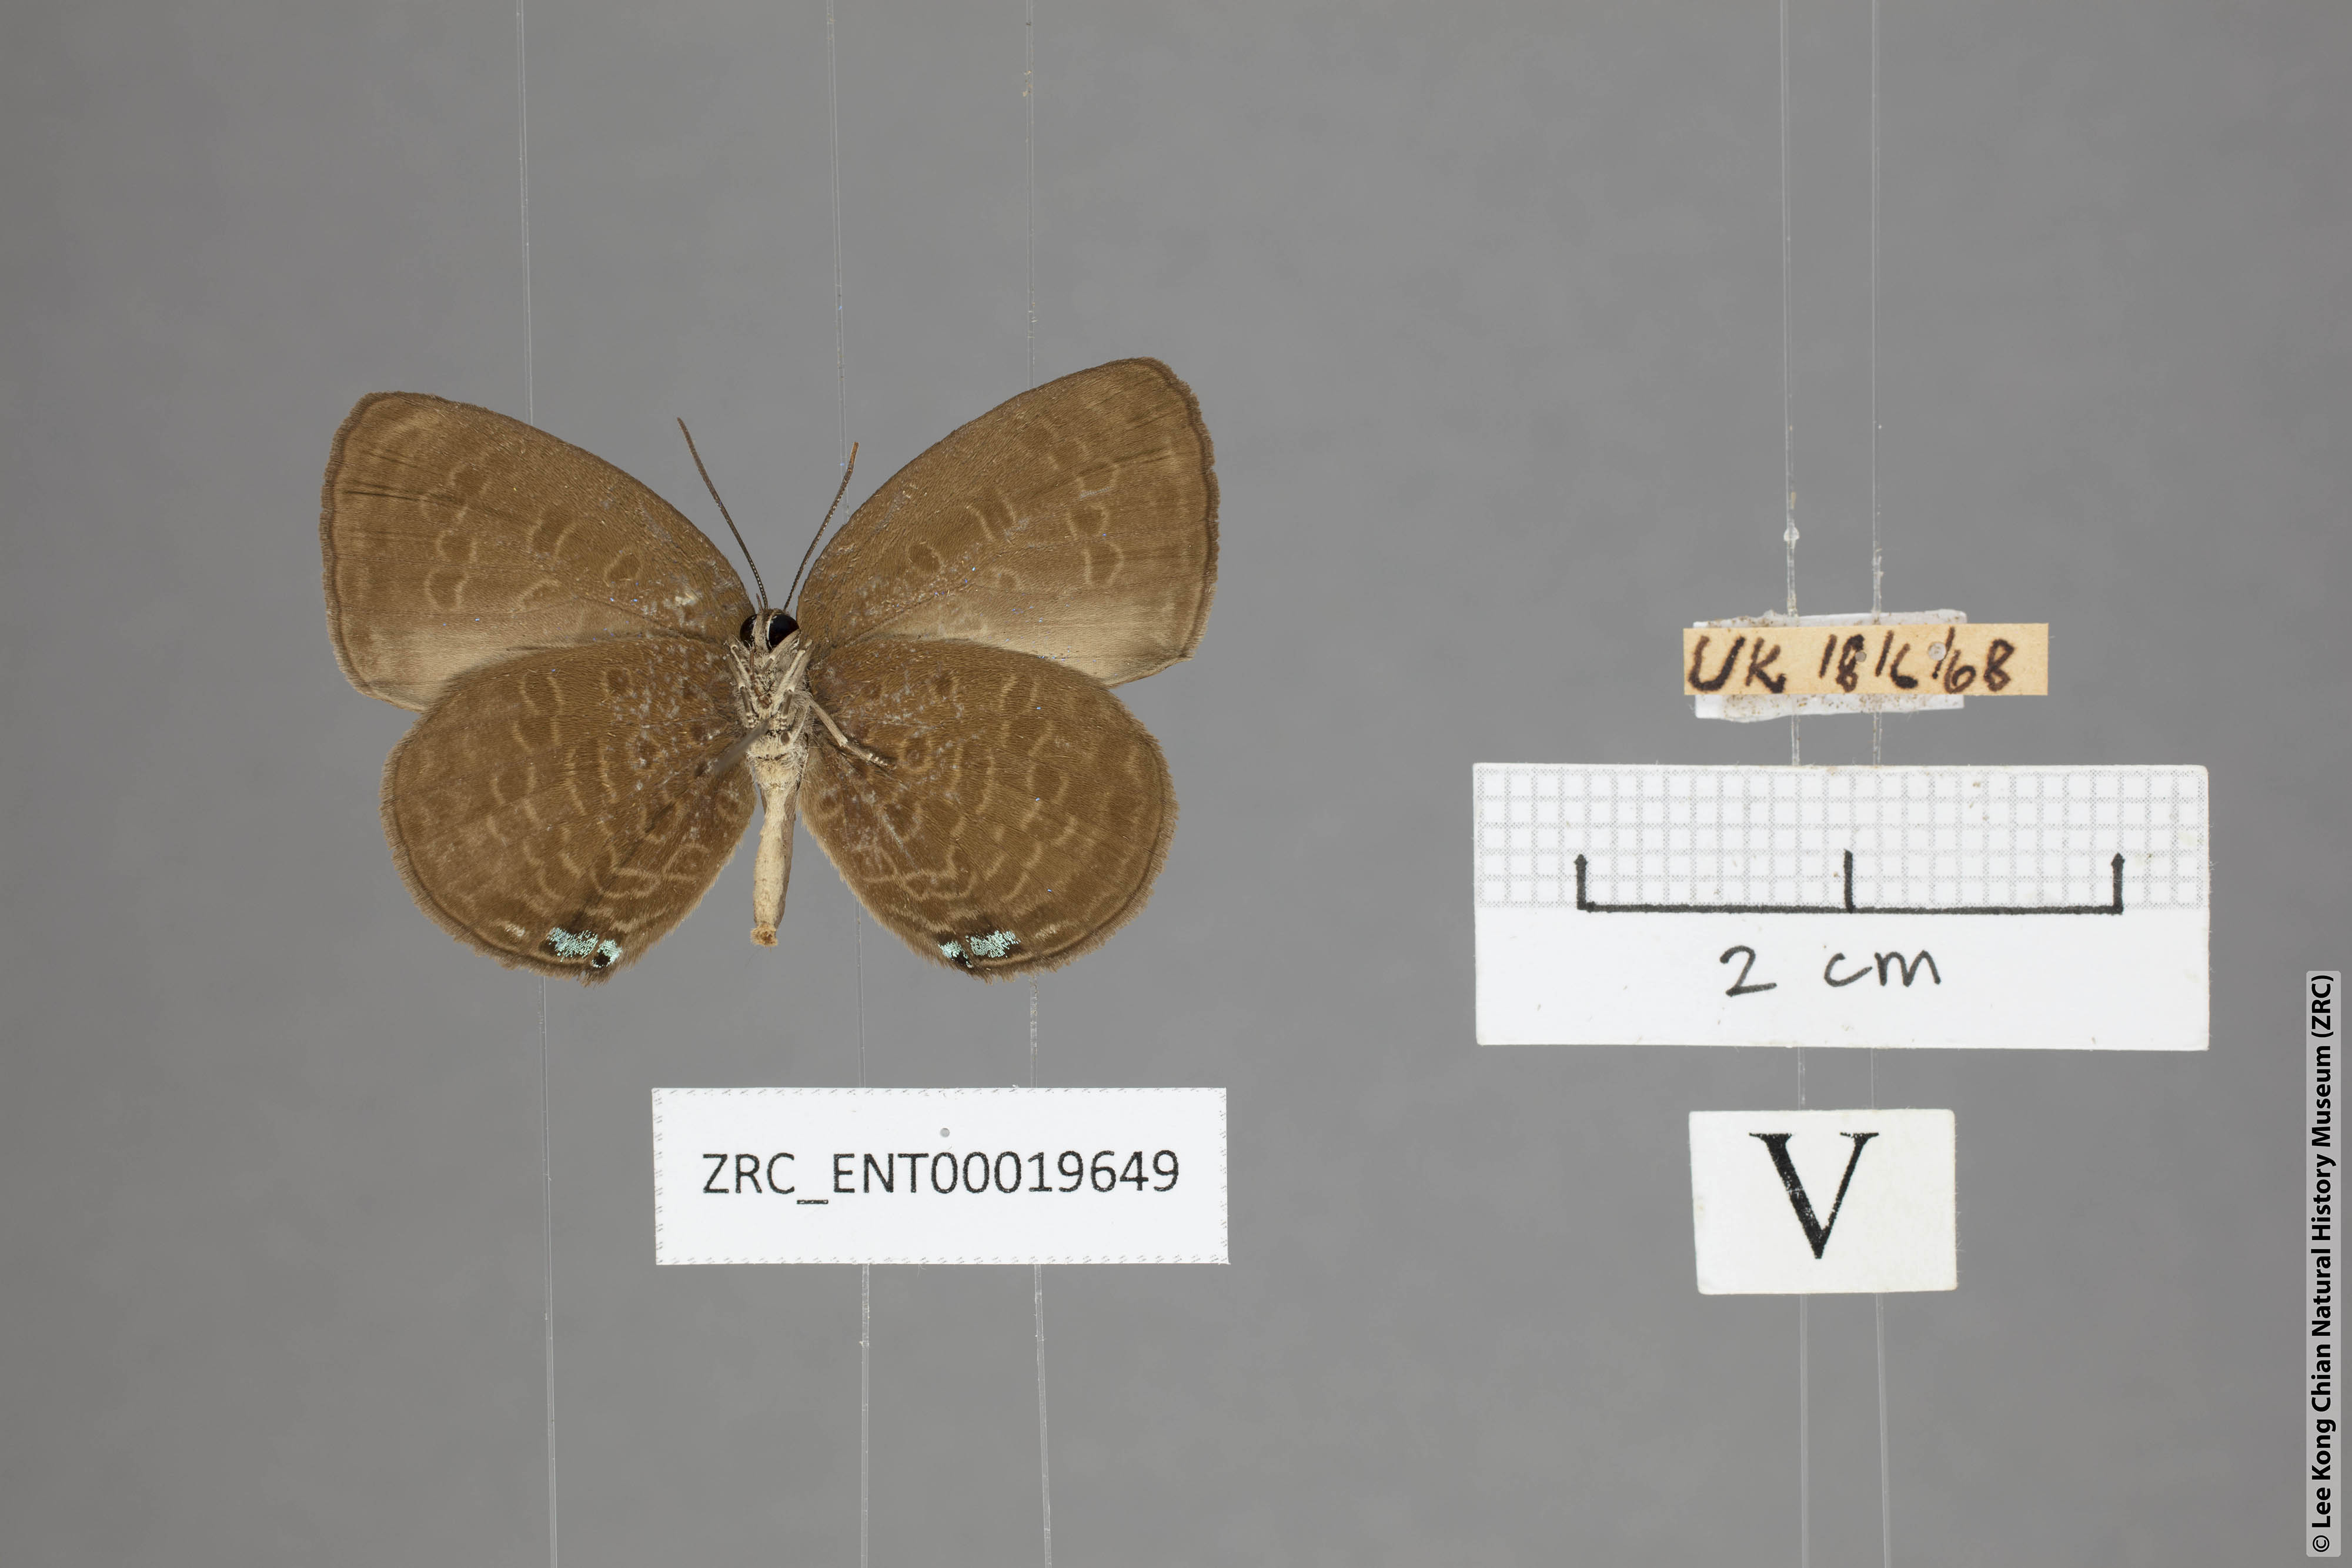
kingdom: Animalia
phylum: Arthropoda
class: Insecta
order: Lepidoptera
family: Lycaenidae
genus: Arhopala
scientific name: Arhopala metamuta
